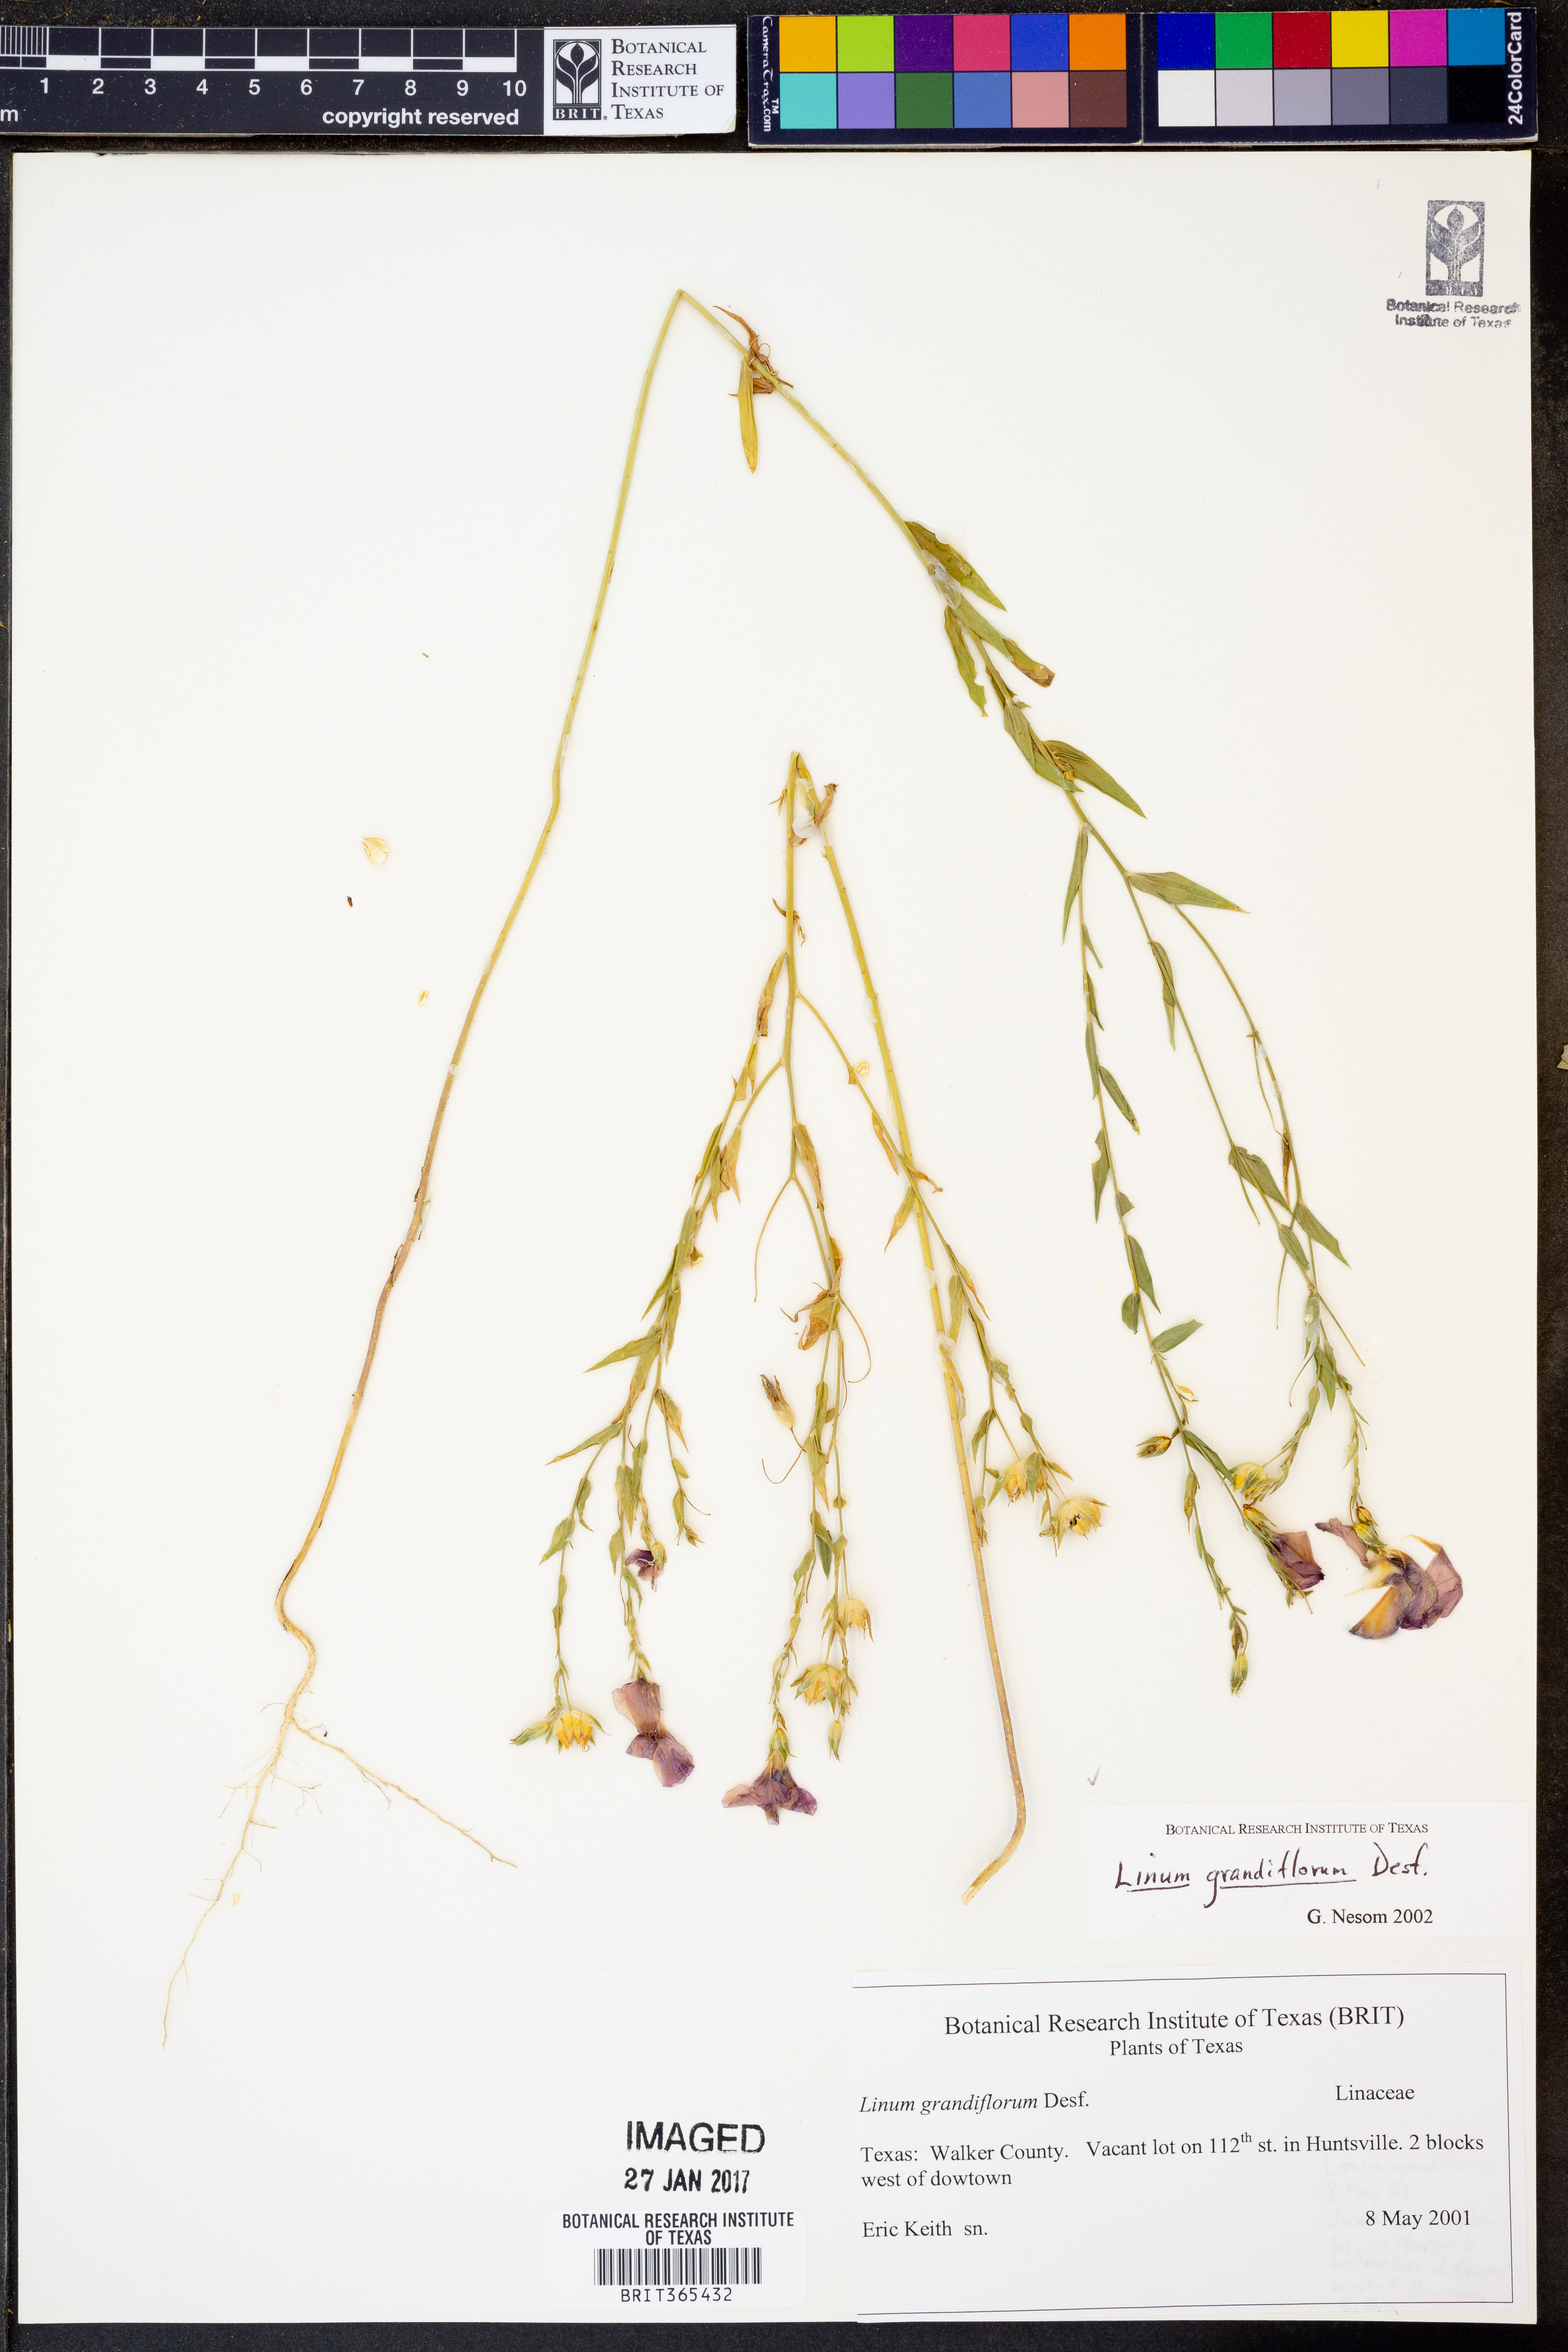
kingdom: Plantae
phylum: Tracheophyta
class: Magnoliopsida
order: Malpighiales
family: Linaceae
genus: Linum
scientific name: Linum grandiflorum
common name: Crimson flax
